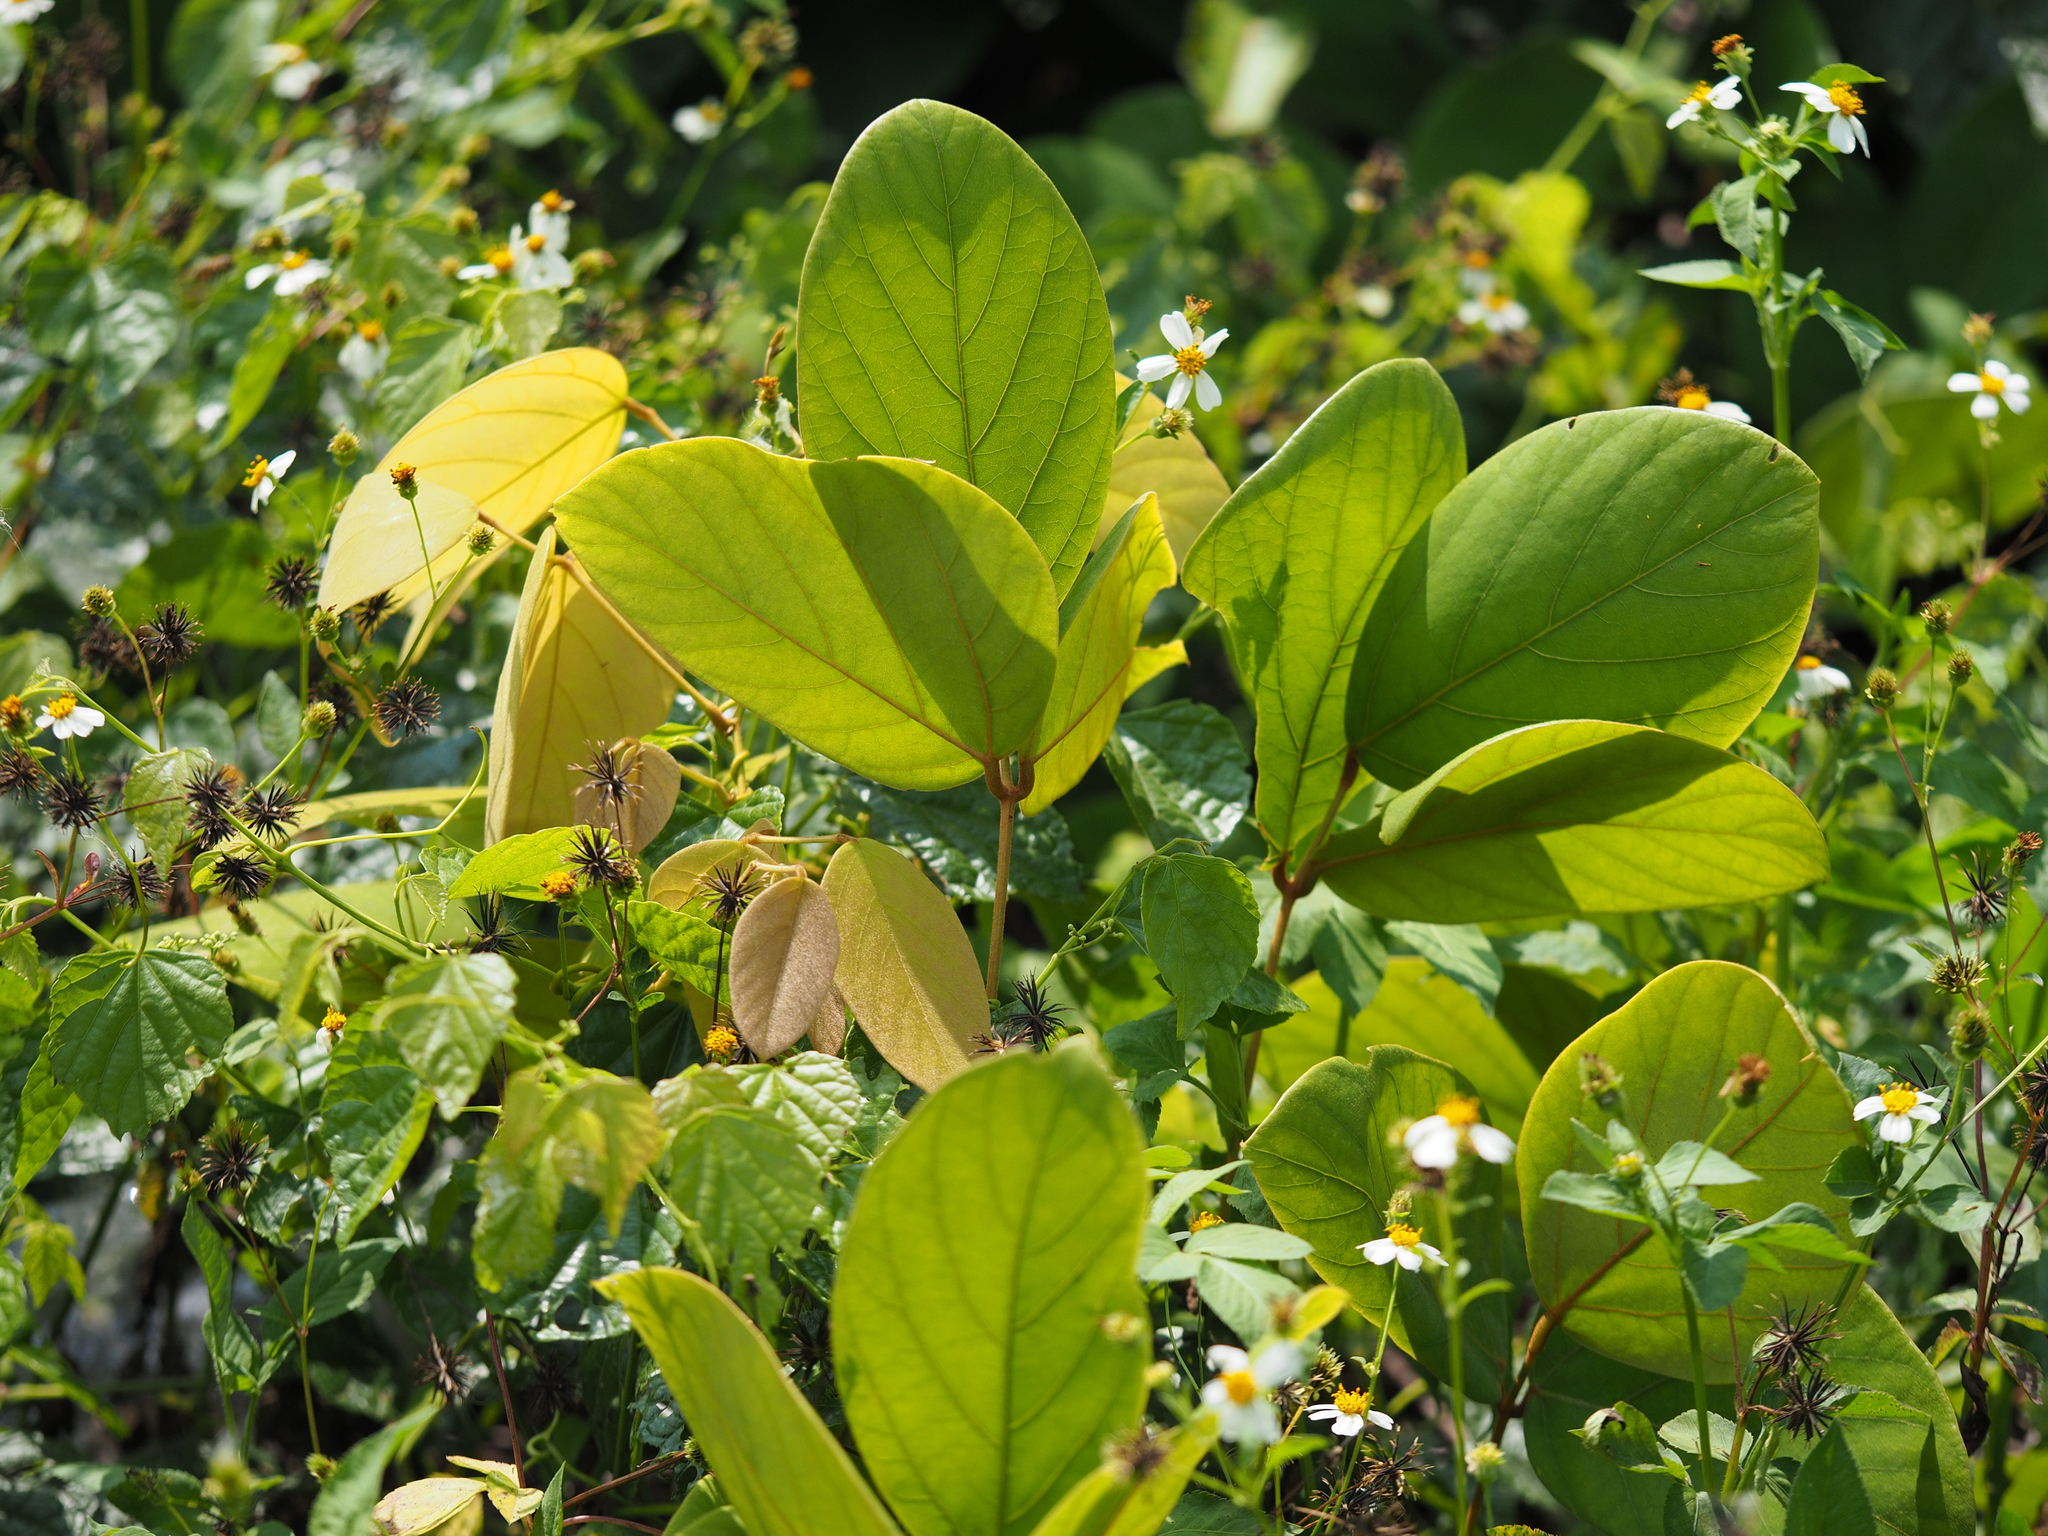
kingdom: Plantae
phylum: Tracheophyta
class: Magnoliopsida
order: Fabales
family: Fabaceae
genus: Mucuna
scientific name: Mucuna macrocarpa
